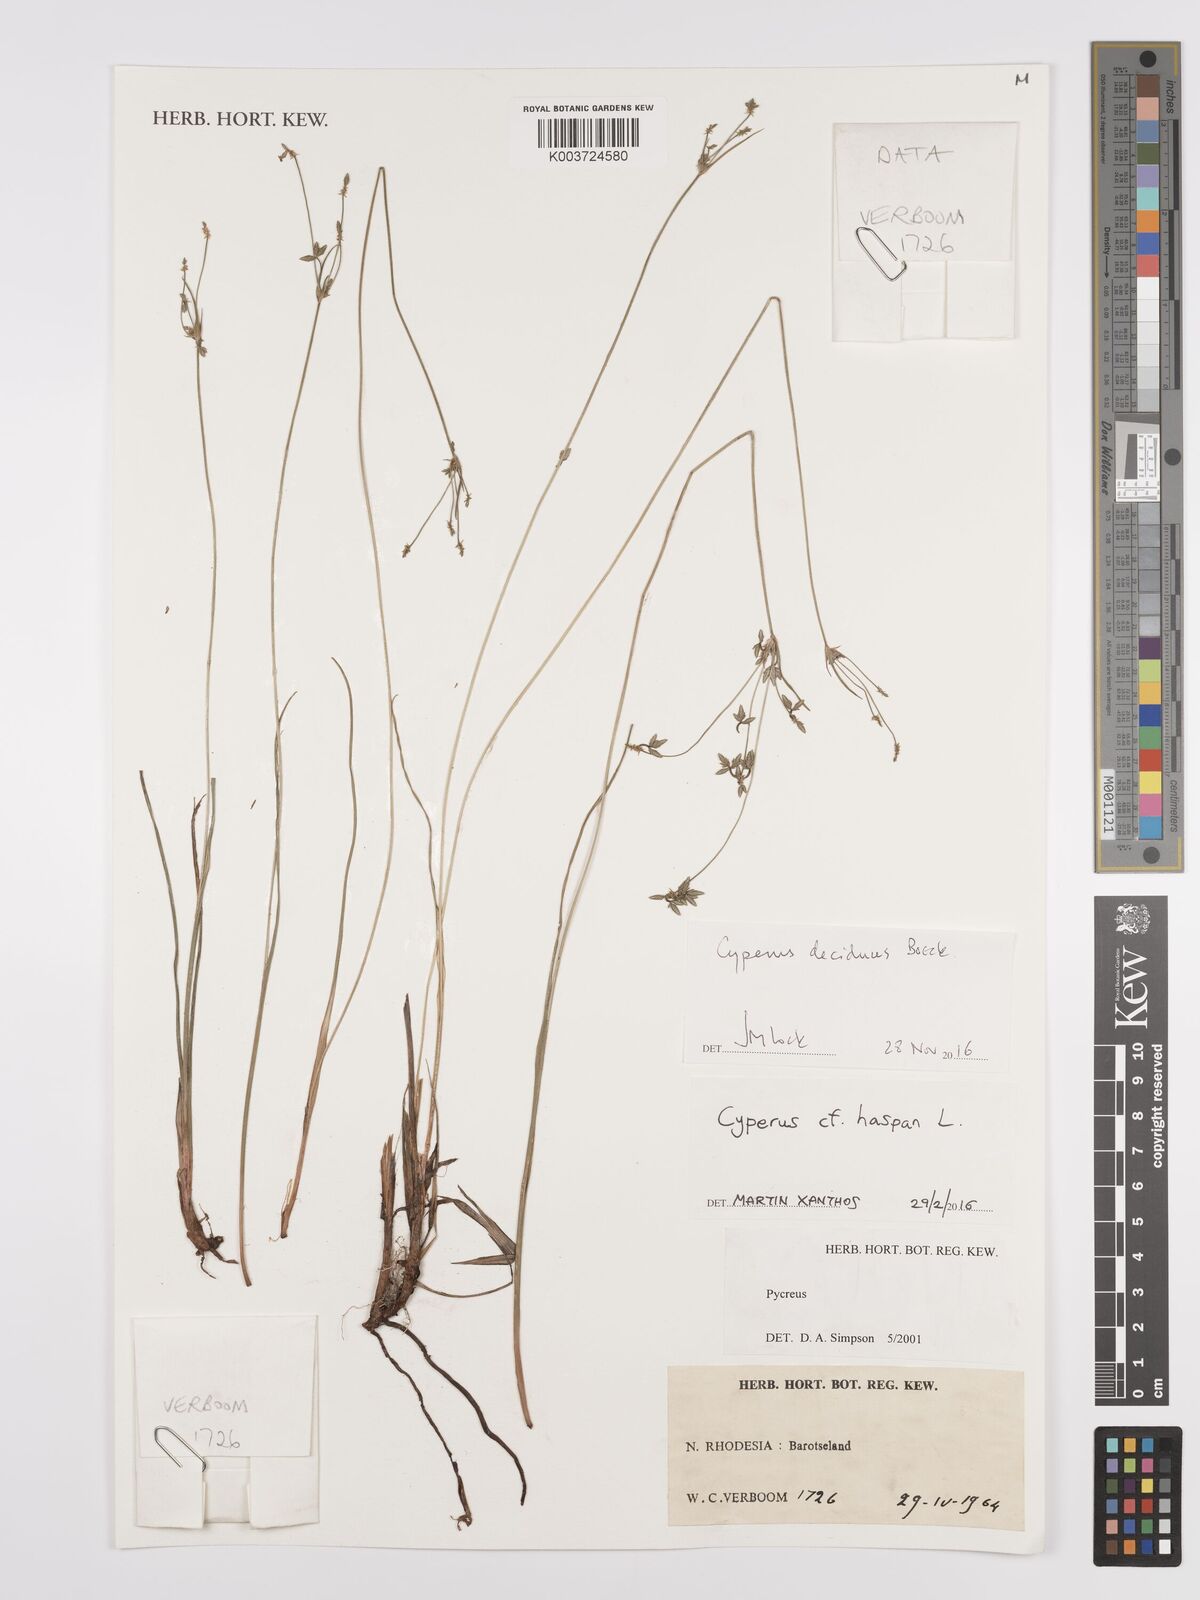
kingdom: Plantae
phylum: Tracheophyta
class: Liliopsida
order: Poales
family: Cyperaceae
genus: Cyperus
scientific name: Cyperus deciduus
